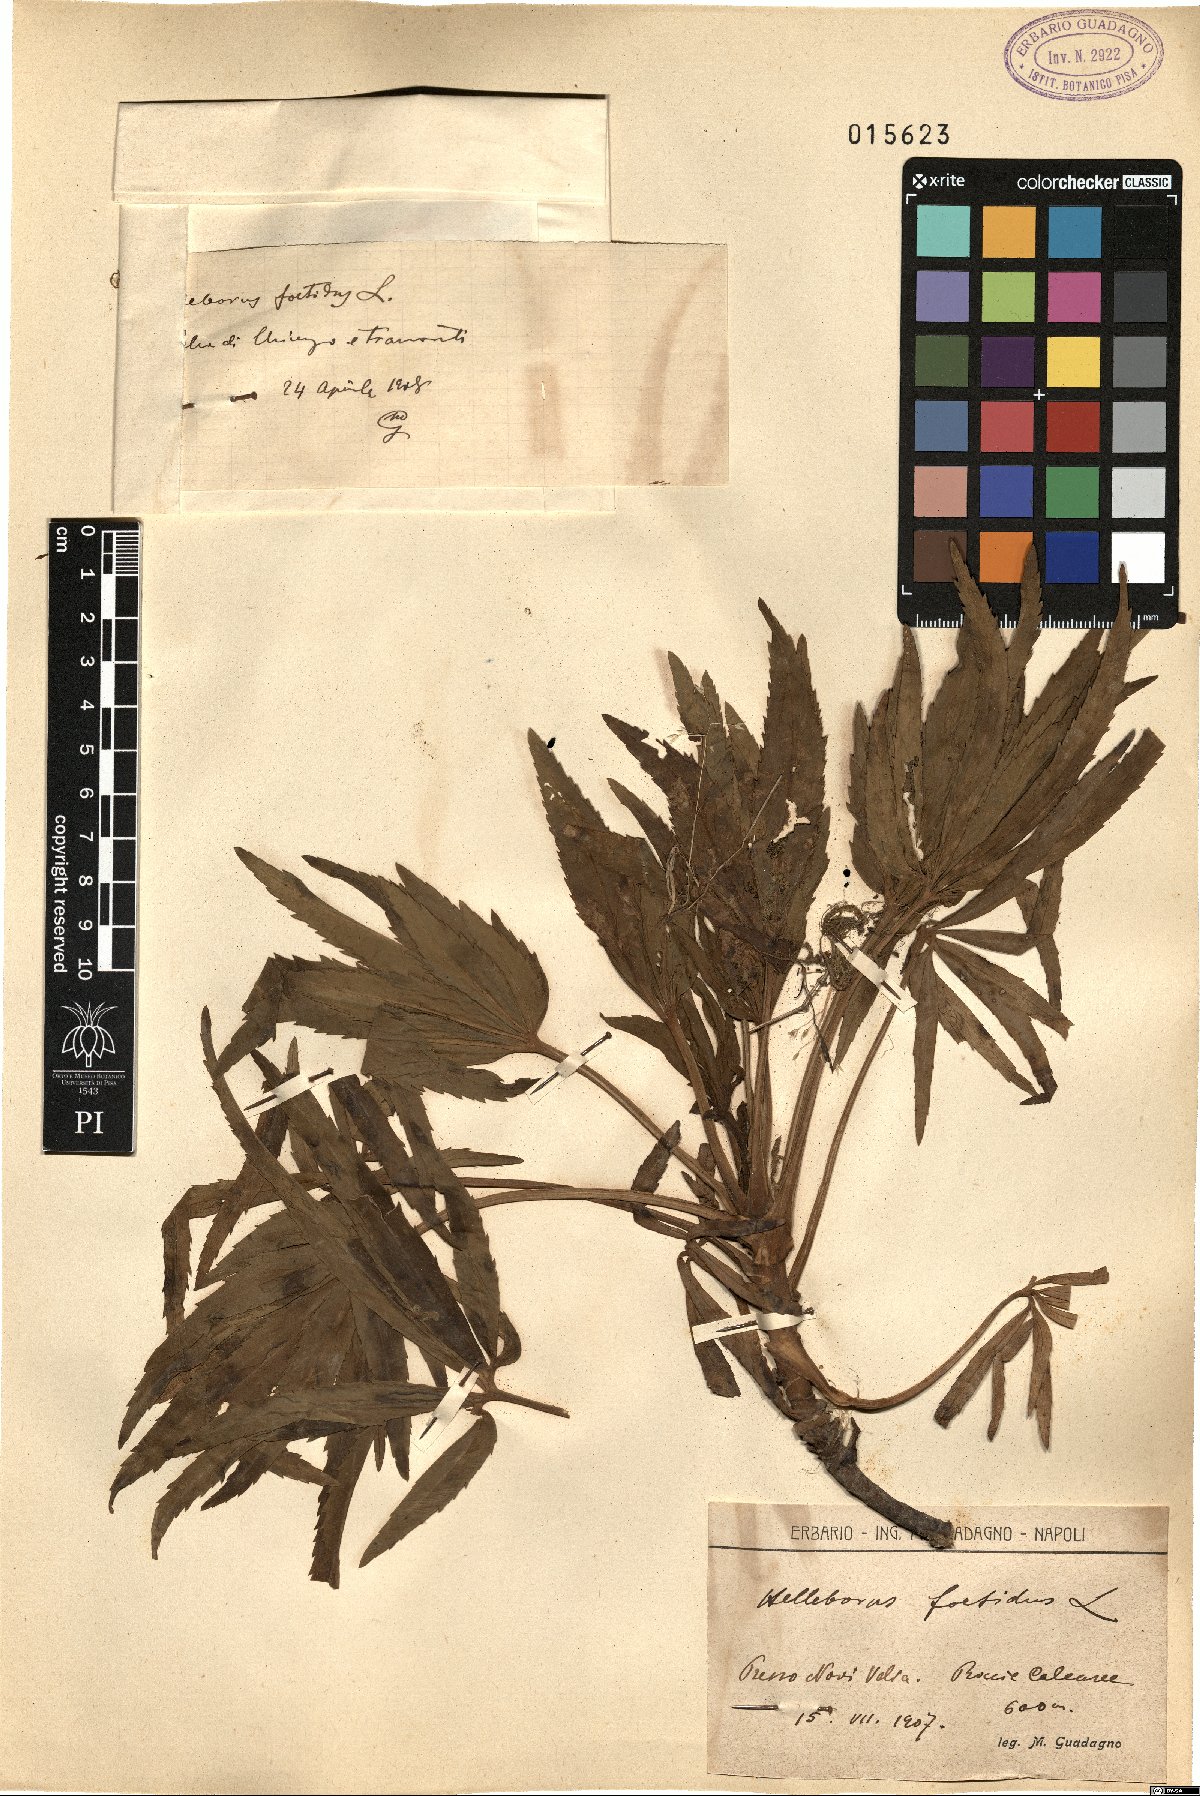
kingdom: Plantae
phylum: Tracheophyta
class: Magnoliopsida
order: Ranunculales
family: Ranunculaceae
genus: Helleborus
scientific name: Helleborus foetidus
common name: Stinking hellebore
